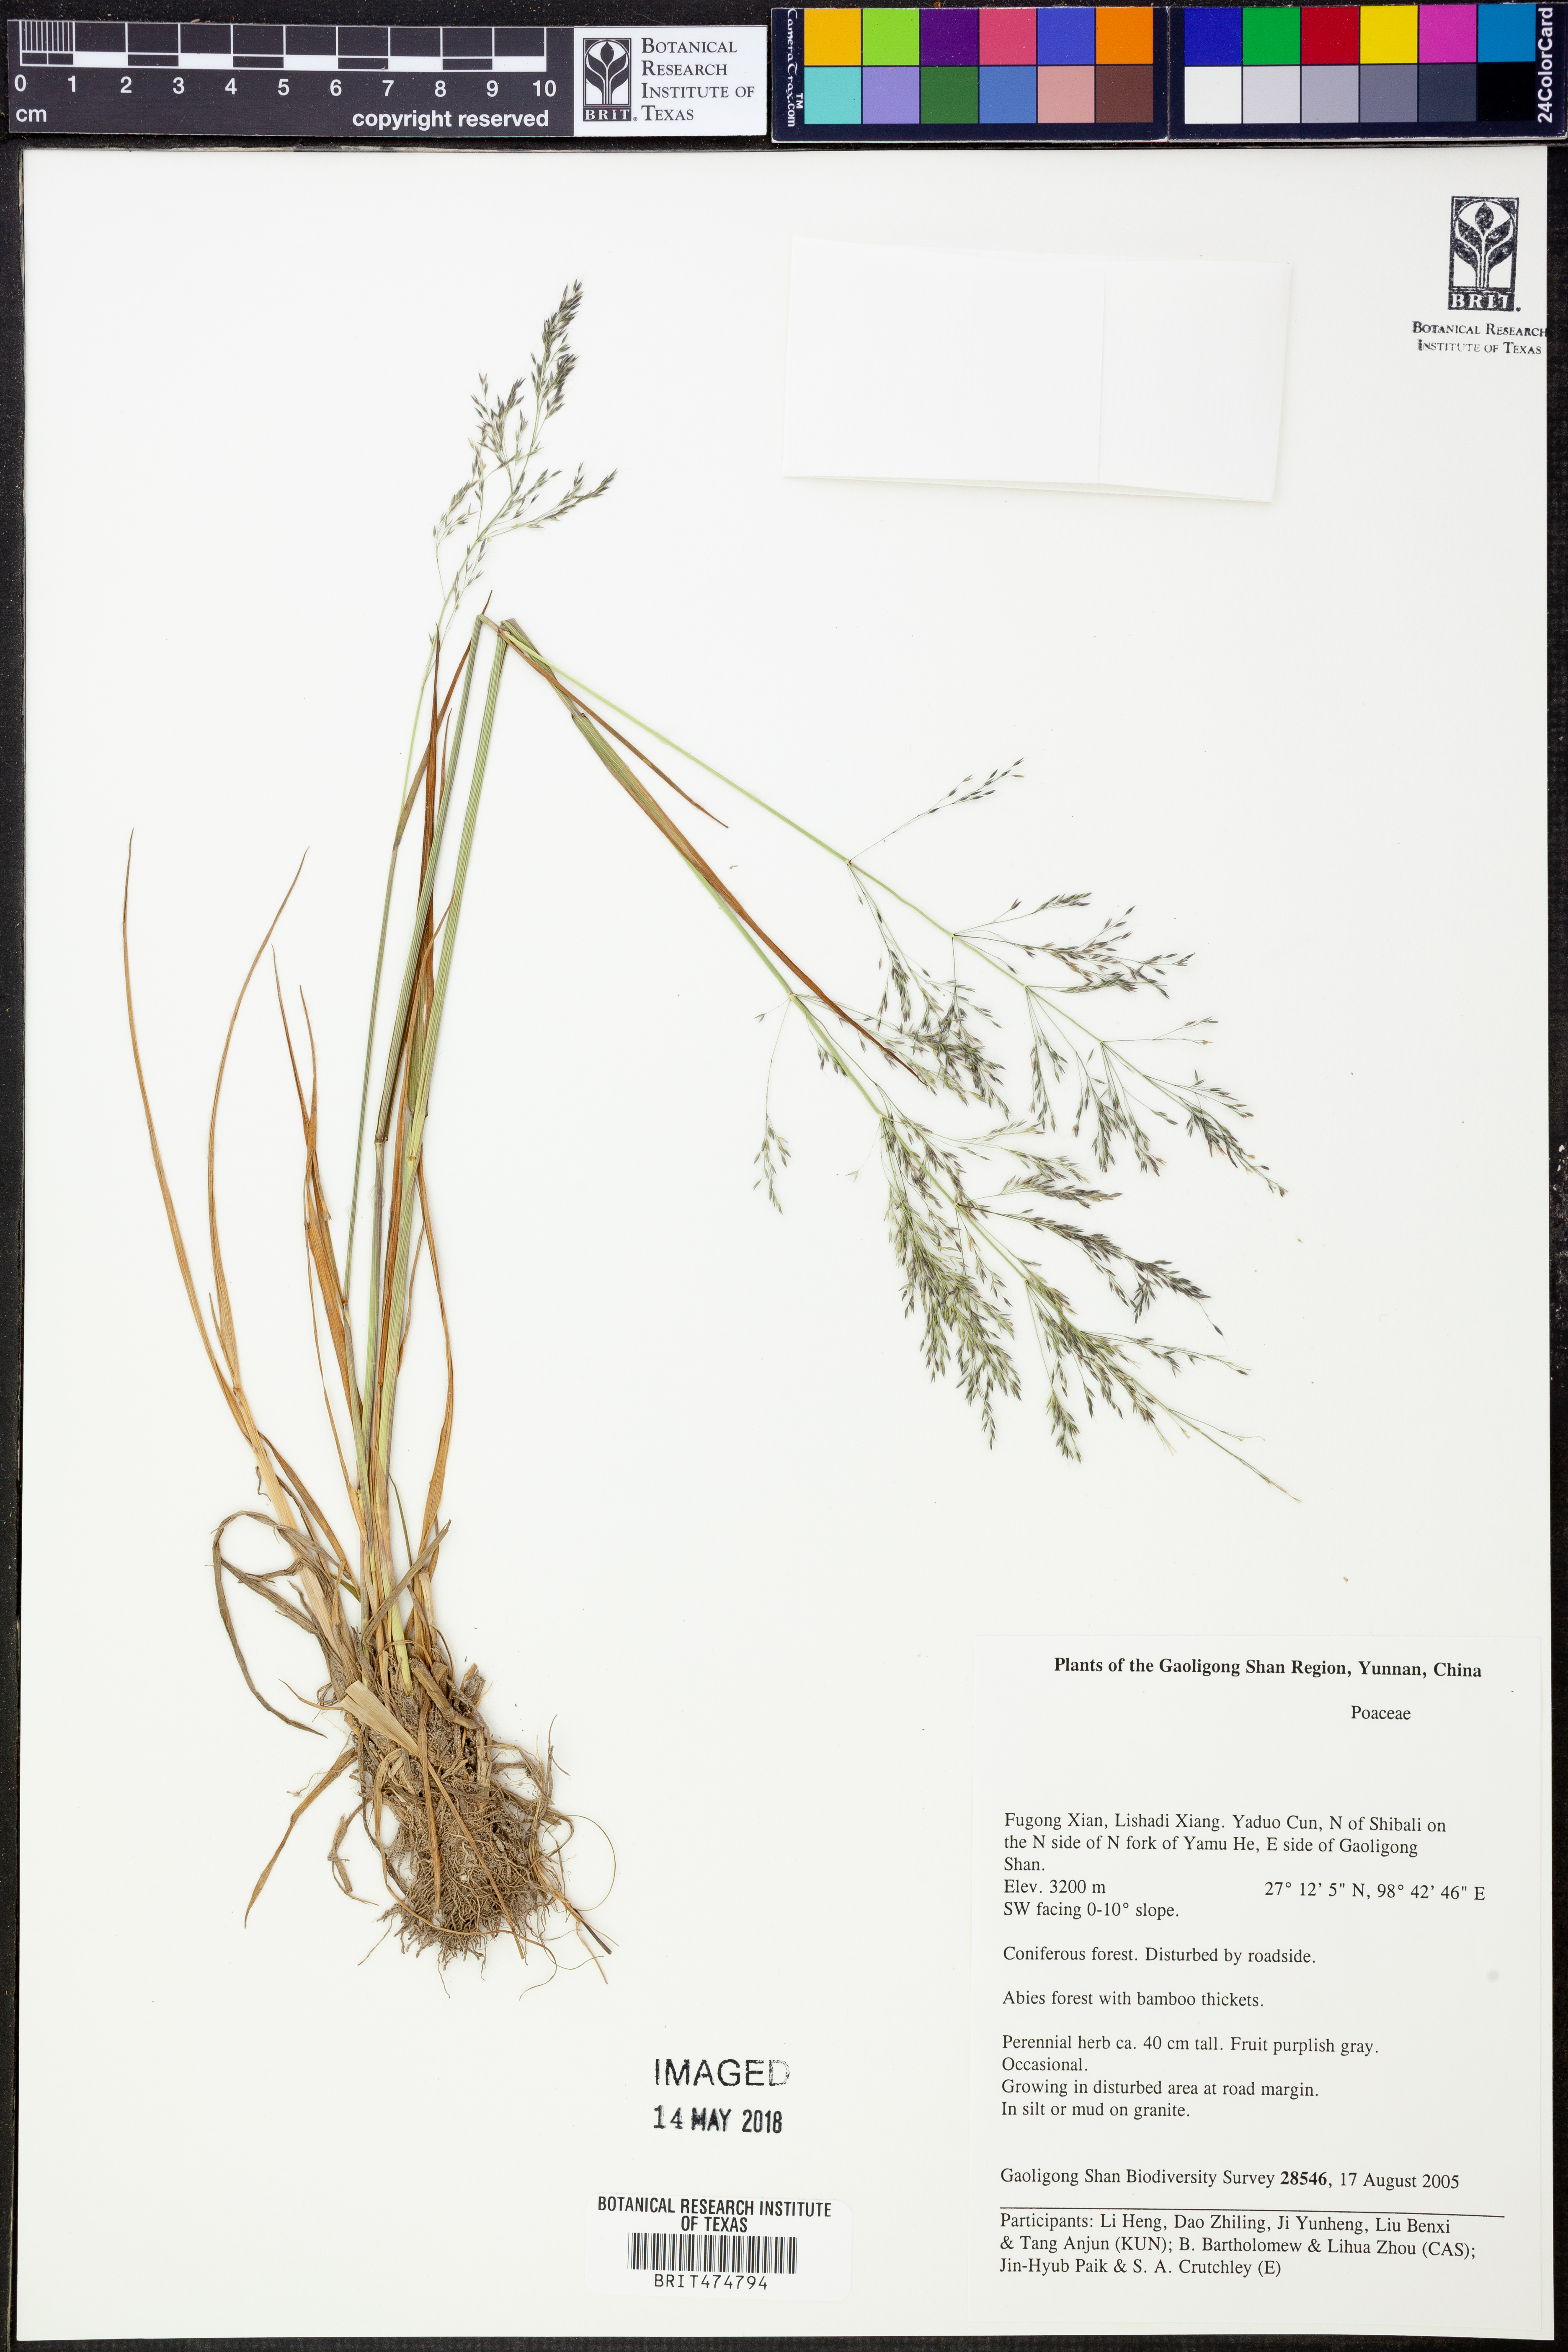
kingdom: Plantae
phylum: Tracheophyta
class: Liliopsida
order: Poales
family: Poaceae
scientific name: Poaceae
